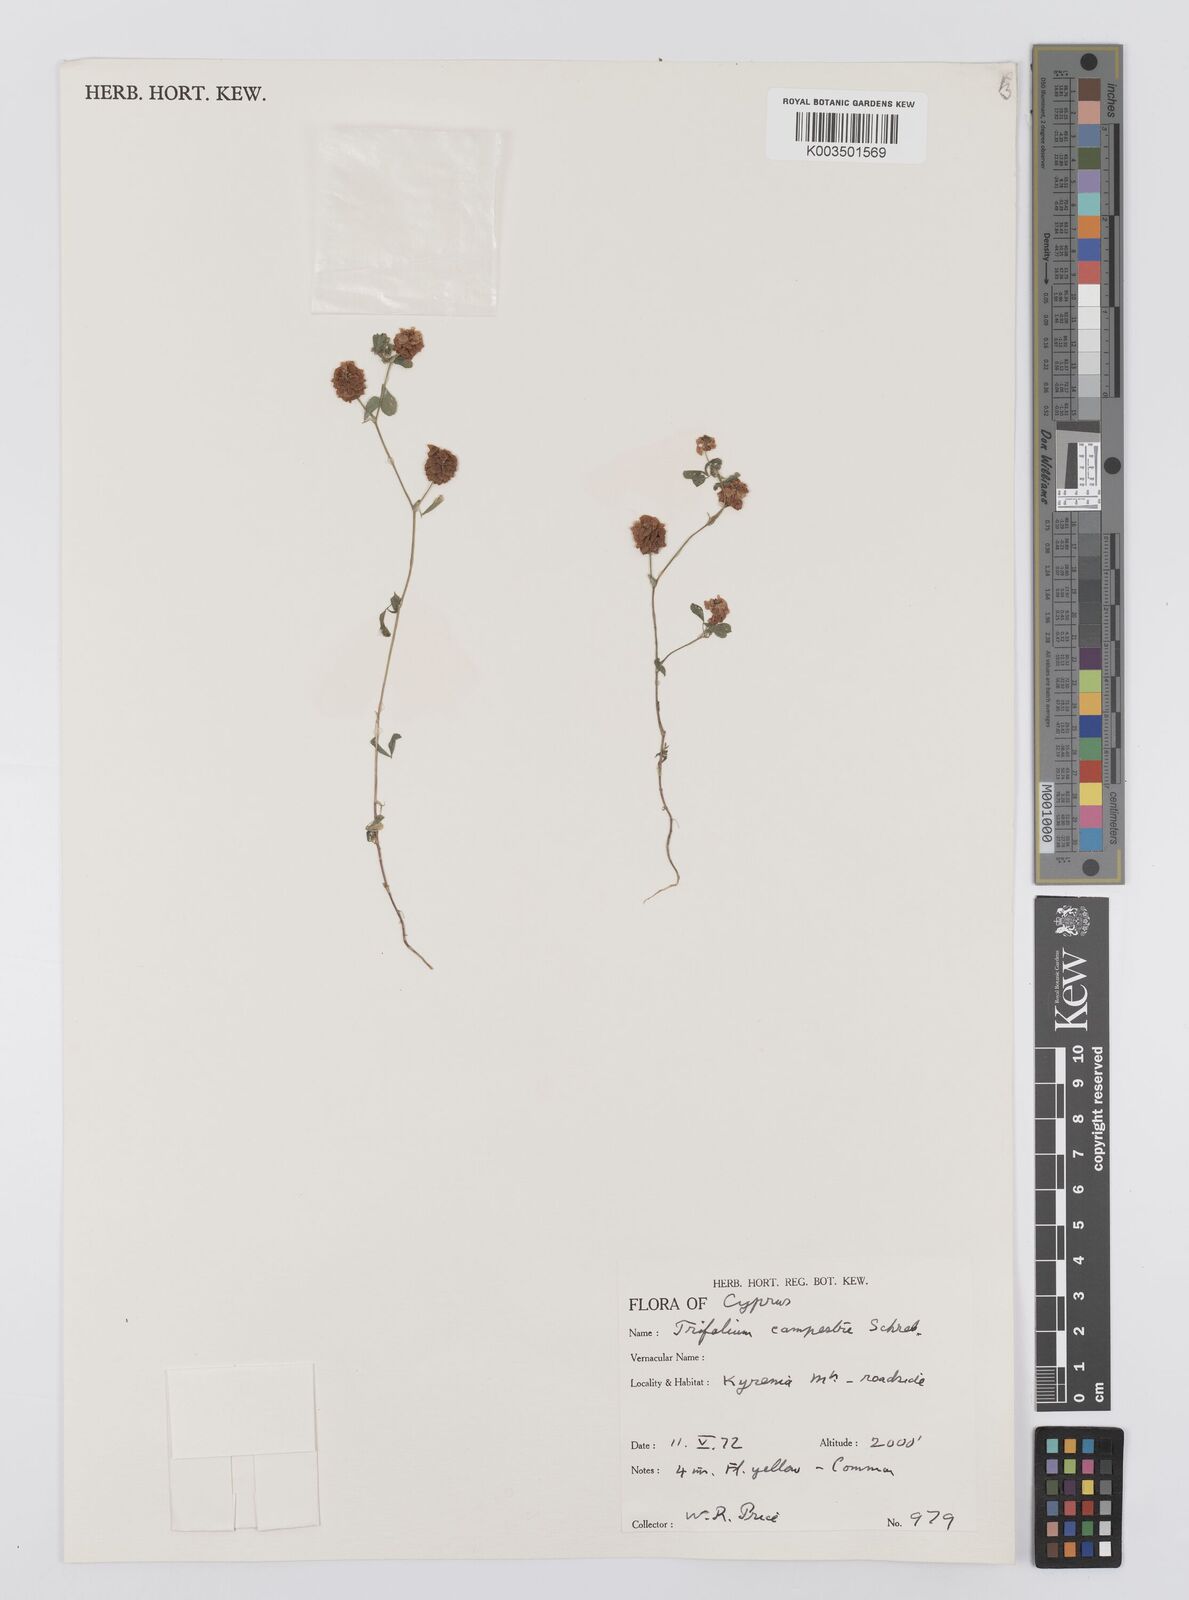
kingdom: Plantae
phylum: Tracheophyta
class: Magnoliopsida
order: Fabales
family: Fabaceae
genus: Trifolium
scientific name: Trifolium campestre
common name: Field clover
